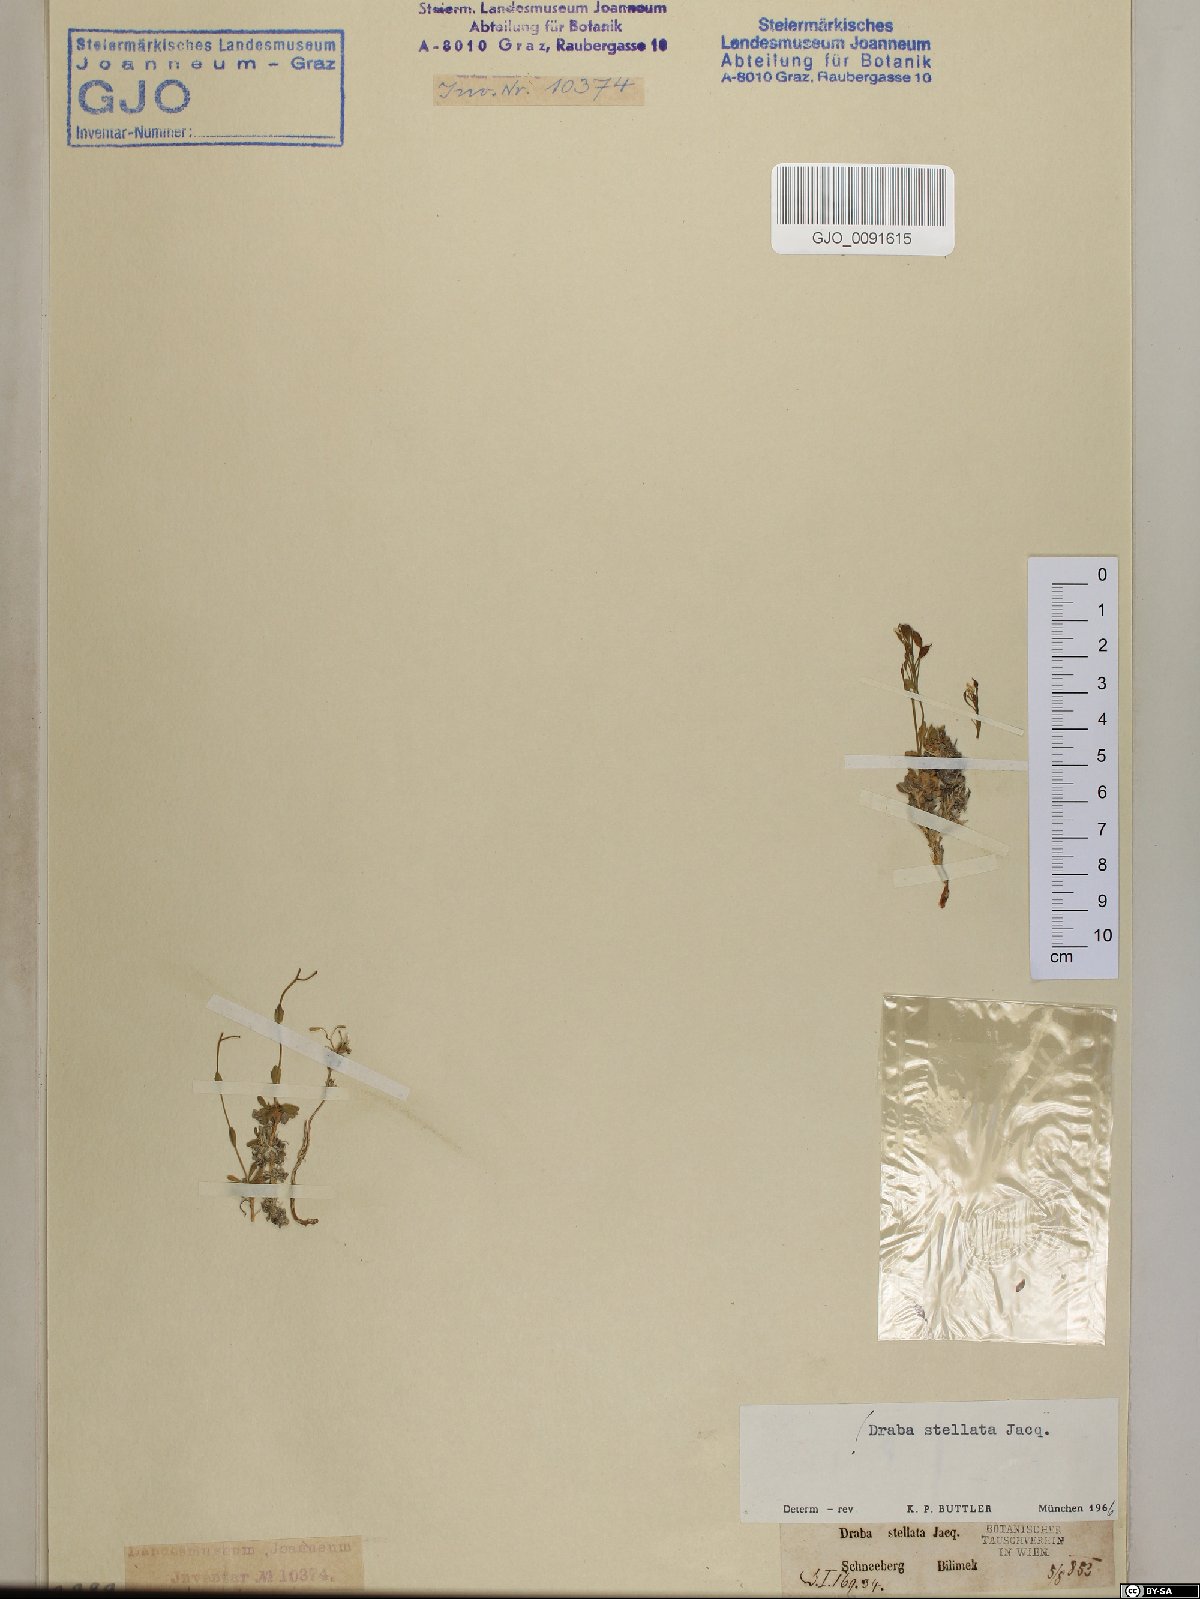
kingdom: Plantae
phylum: Tracheophyta
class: Magnoliopsida
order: Brassicales
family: Brassicaceae
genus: Draba
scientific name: Draba stellata
